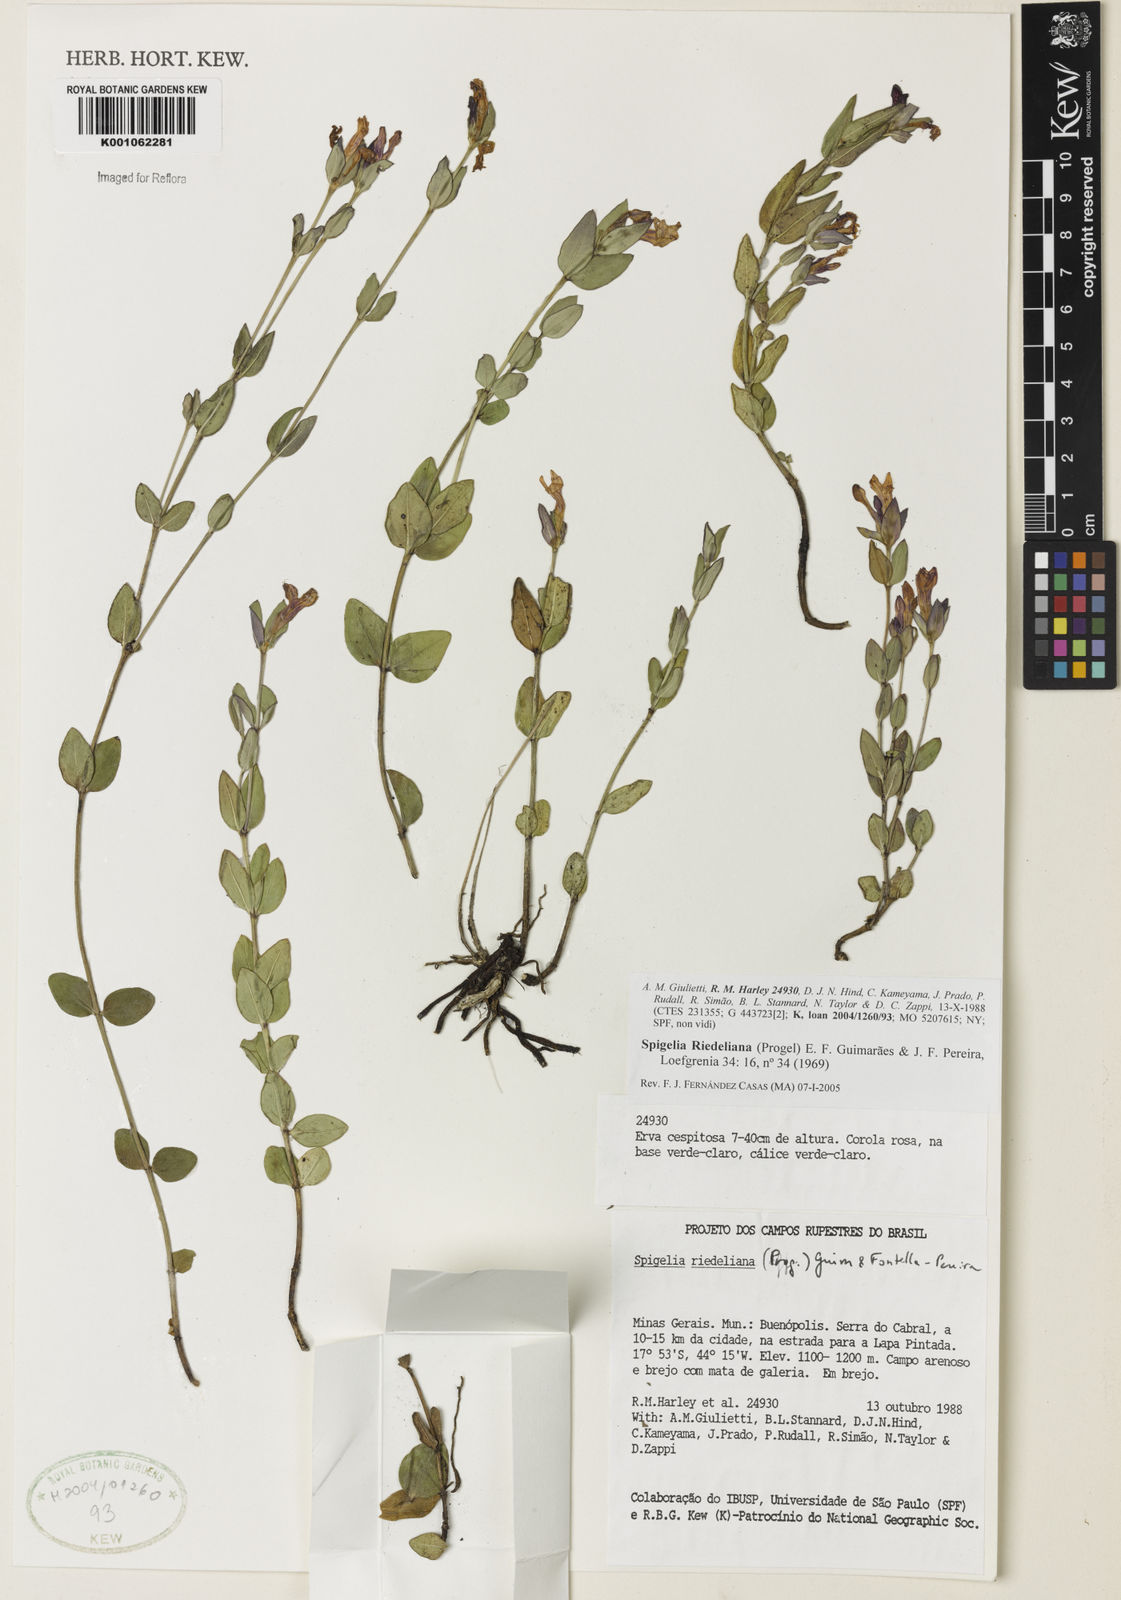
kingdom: Plantae
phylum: Tracheophyta
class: Magnoliopsida
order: Gentianales
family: Loganiaceae
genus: Spigelia
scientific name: Spigelia riedeliana
